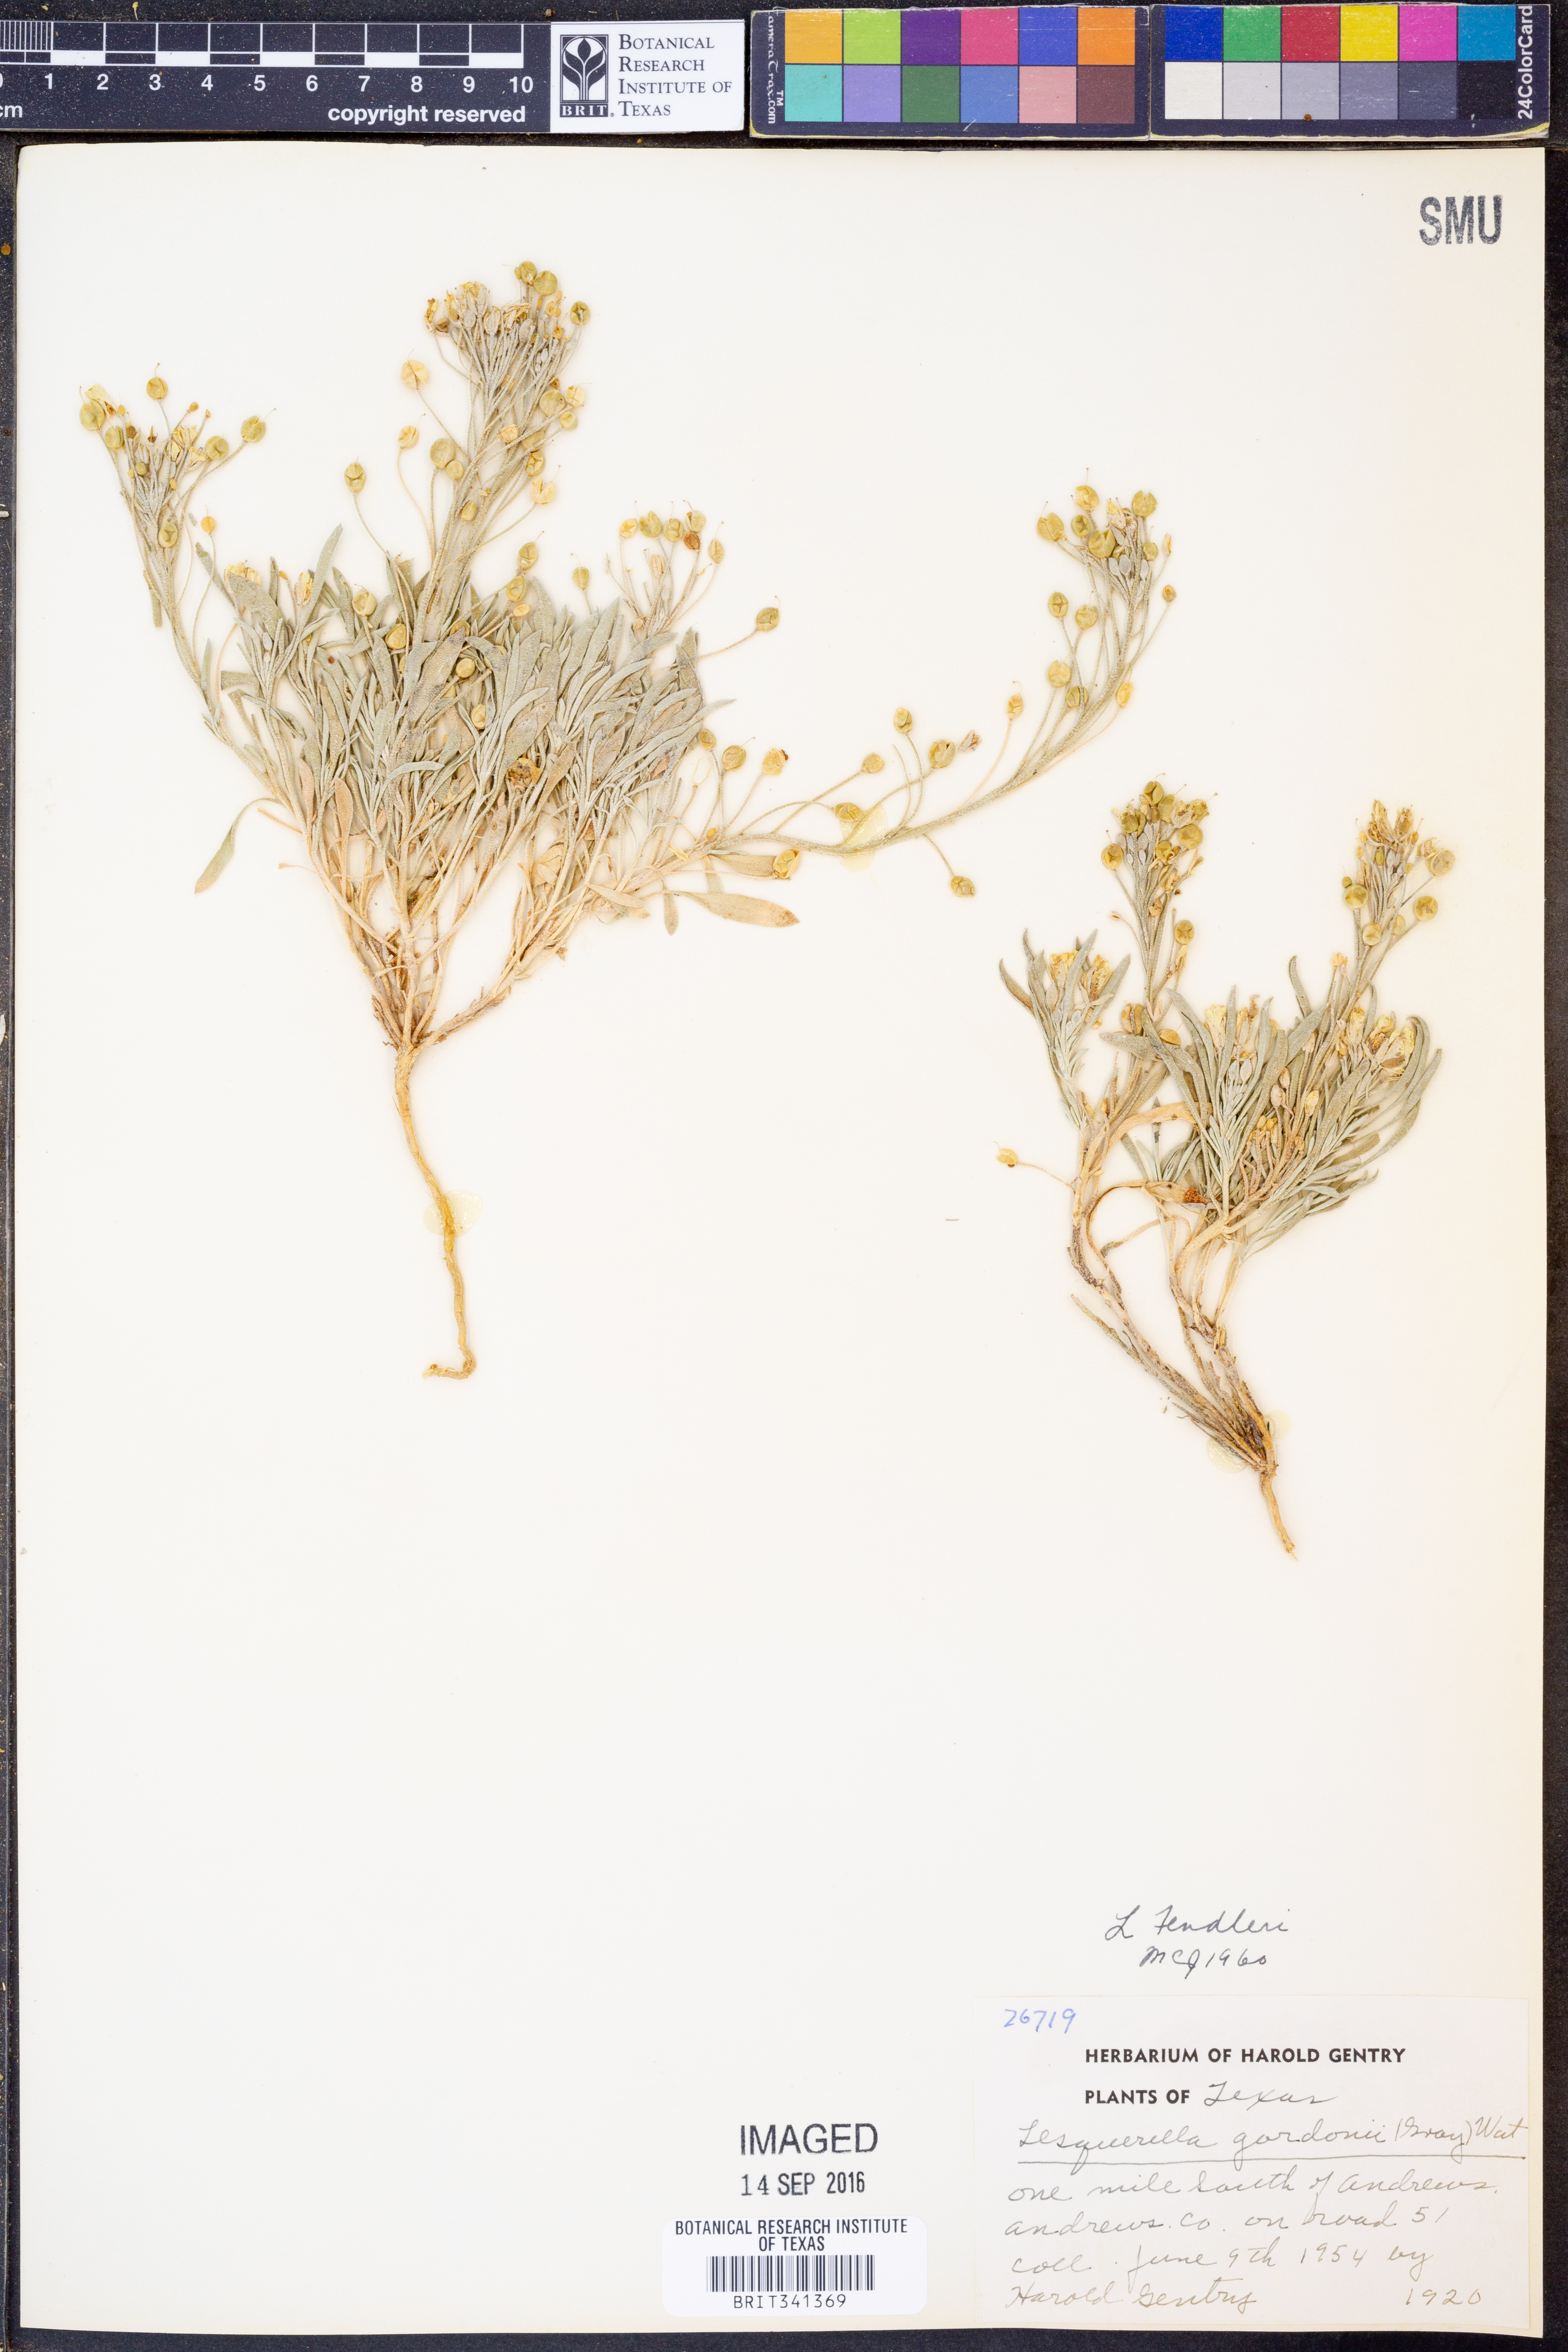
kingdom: Plantae
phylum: Tracheophyta
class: Magnoliopsida
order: Brassicales
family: Brassicaceae
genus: Physaria
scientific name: Physaria fendleri
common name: Fendler's bladderpod
